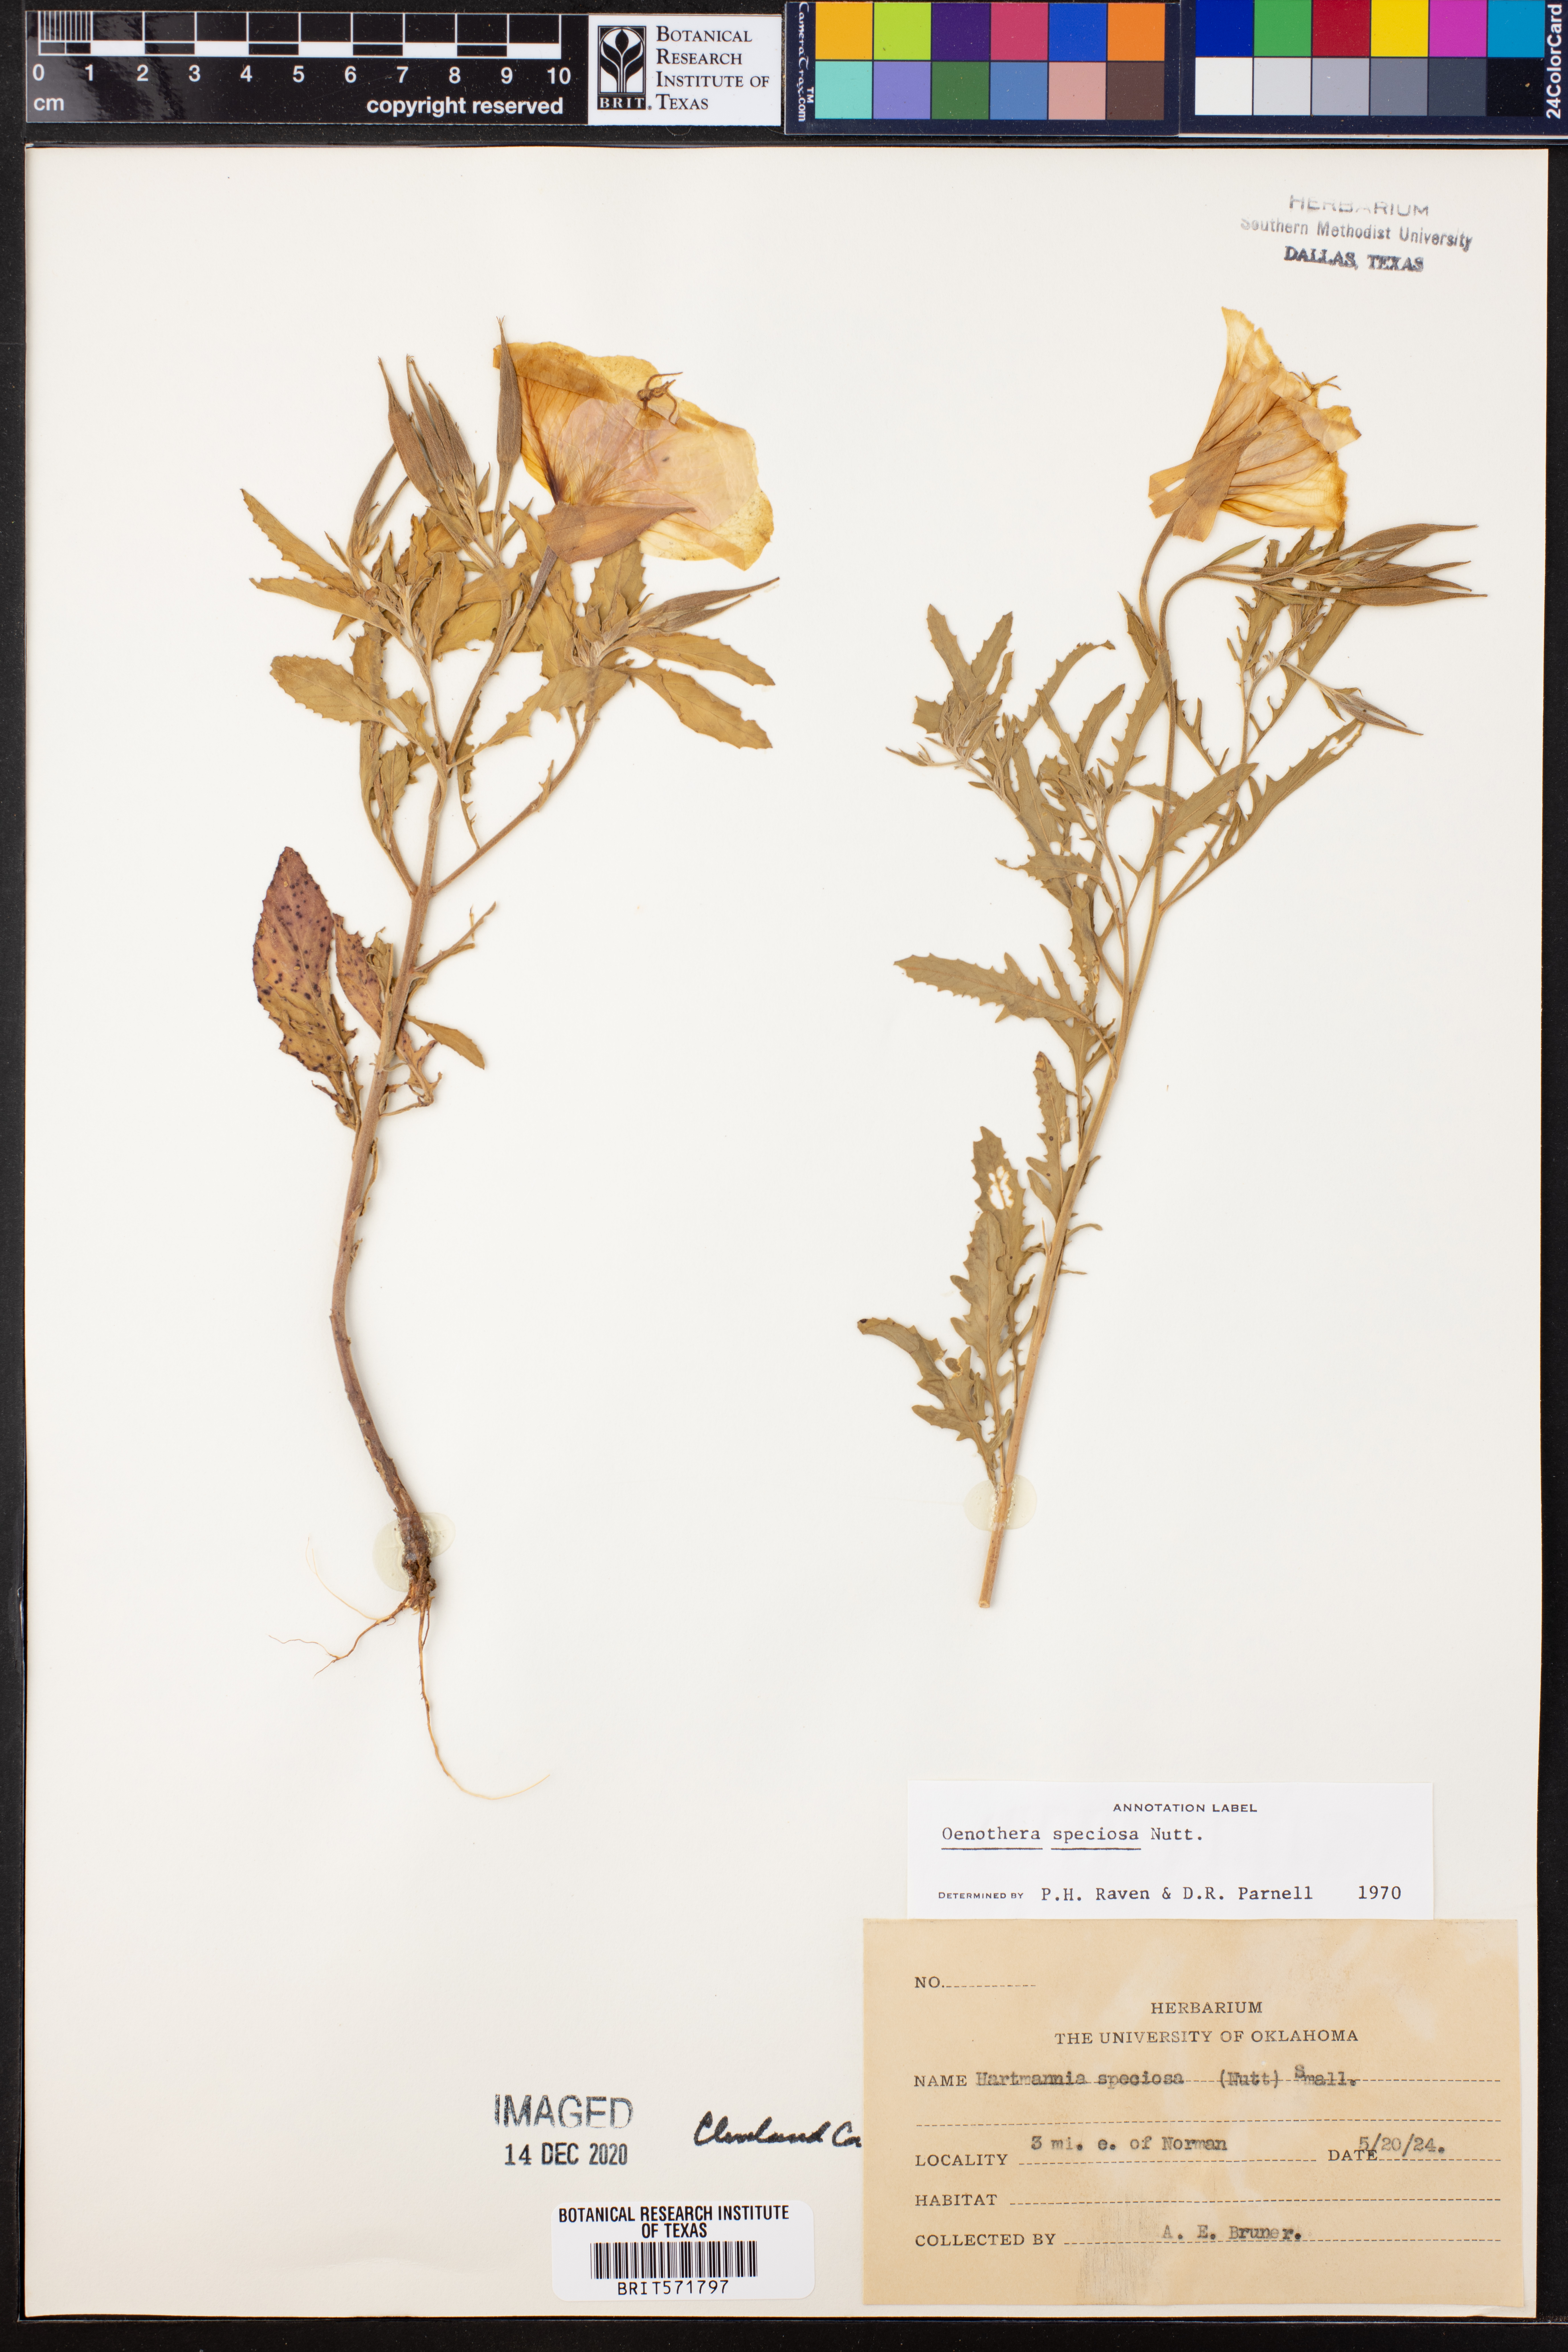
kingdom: Plantae
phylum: Tracheophyta
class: Magnoliopsida
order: Myrtales
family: Onagraceae
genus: Oenothera
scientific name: Oenothera speciosa
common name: White evening-primrose
